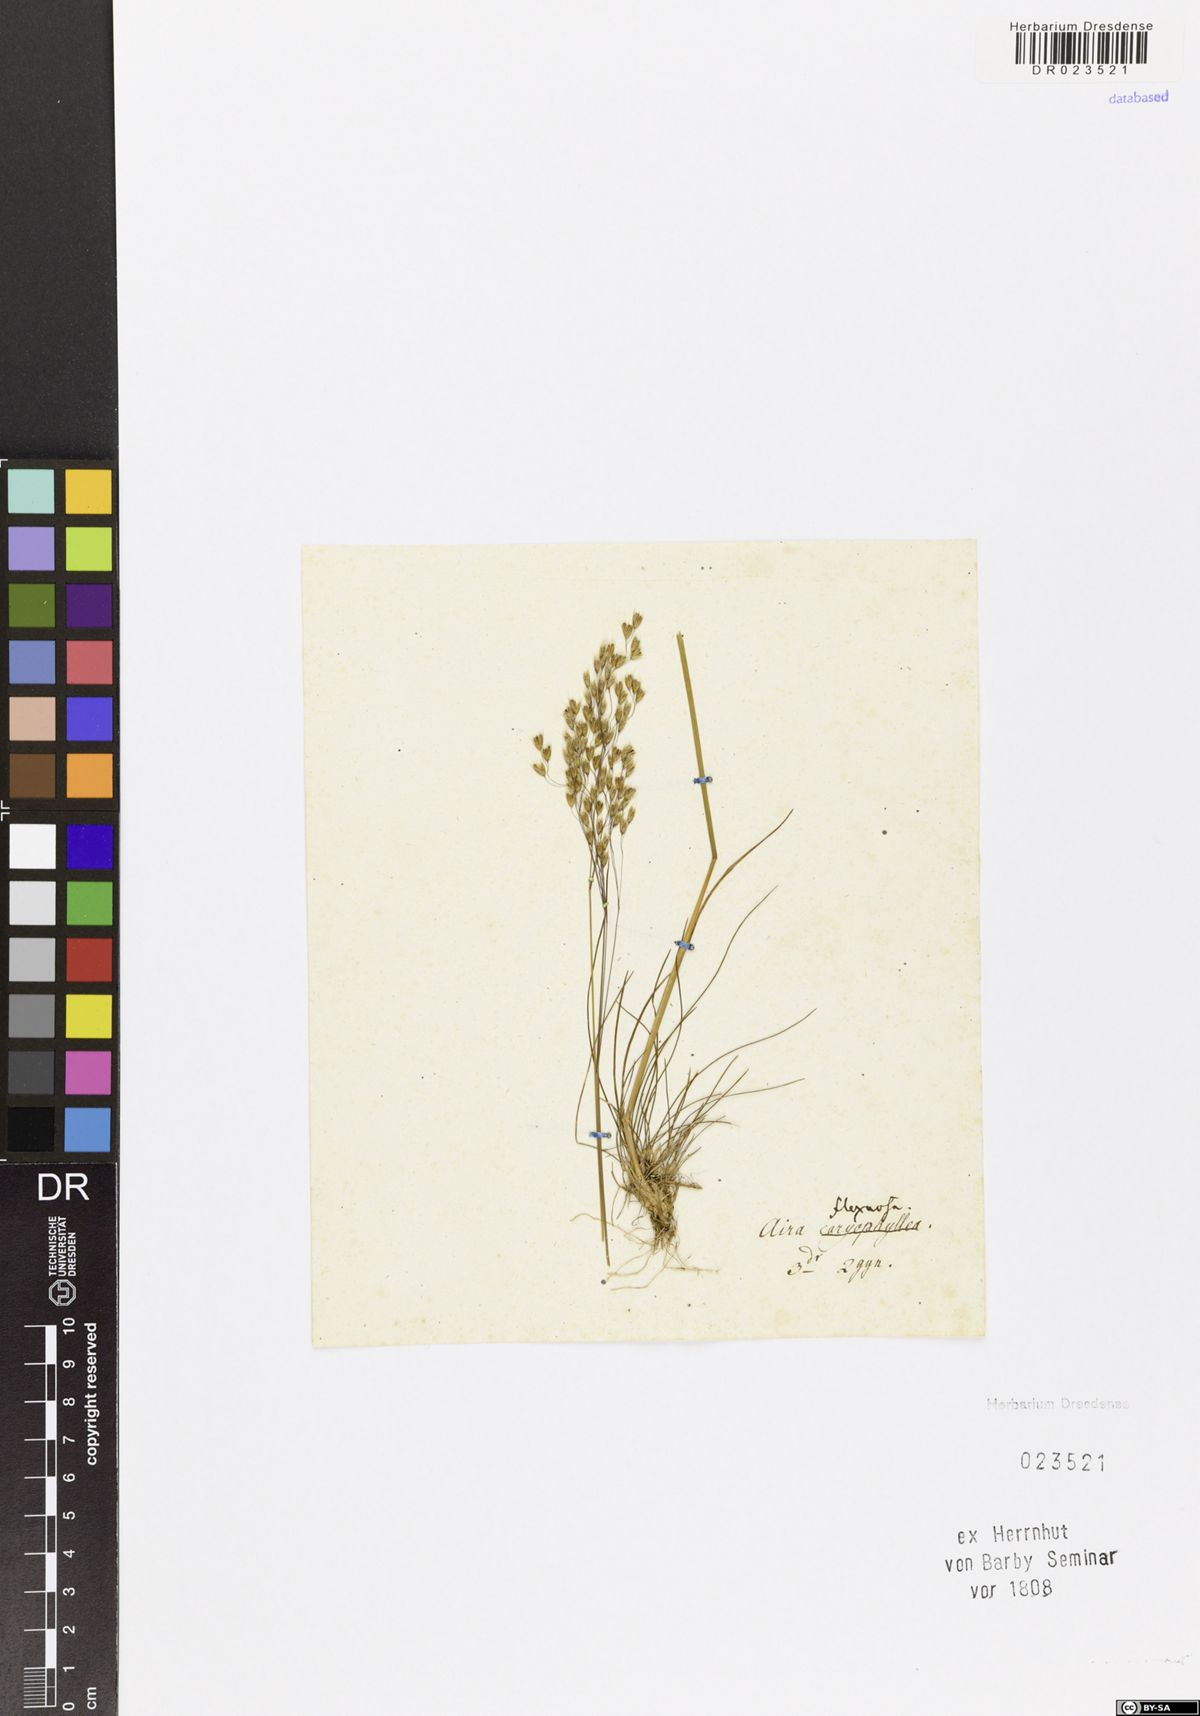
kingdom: Plantae
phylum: Tracheophyta
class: Liliopsida
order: Poales
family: Poaceae
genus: Avenella
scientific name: Avenella flexuosa
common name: Wavy hairgrass
